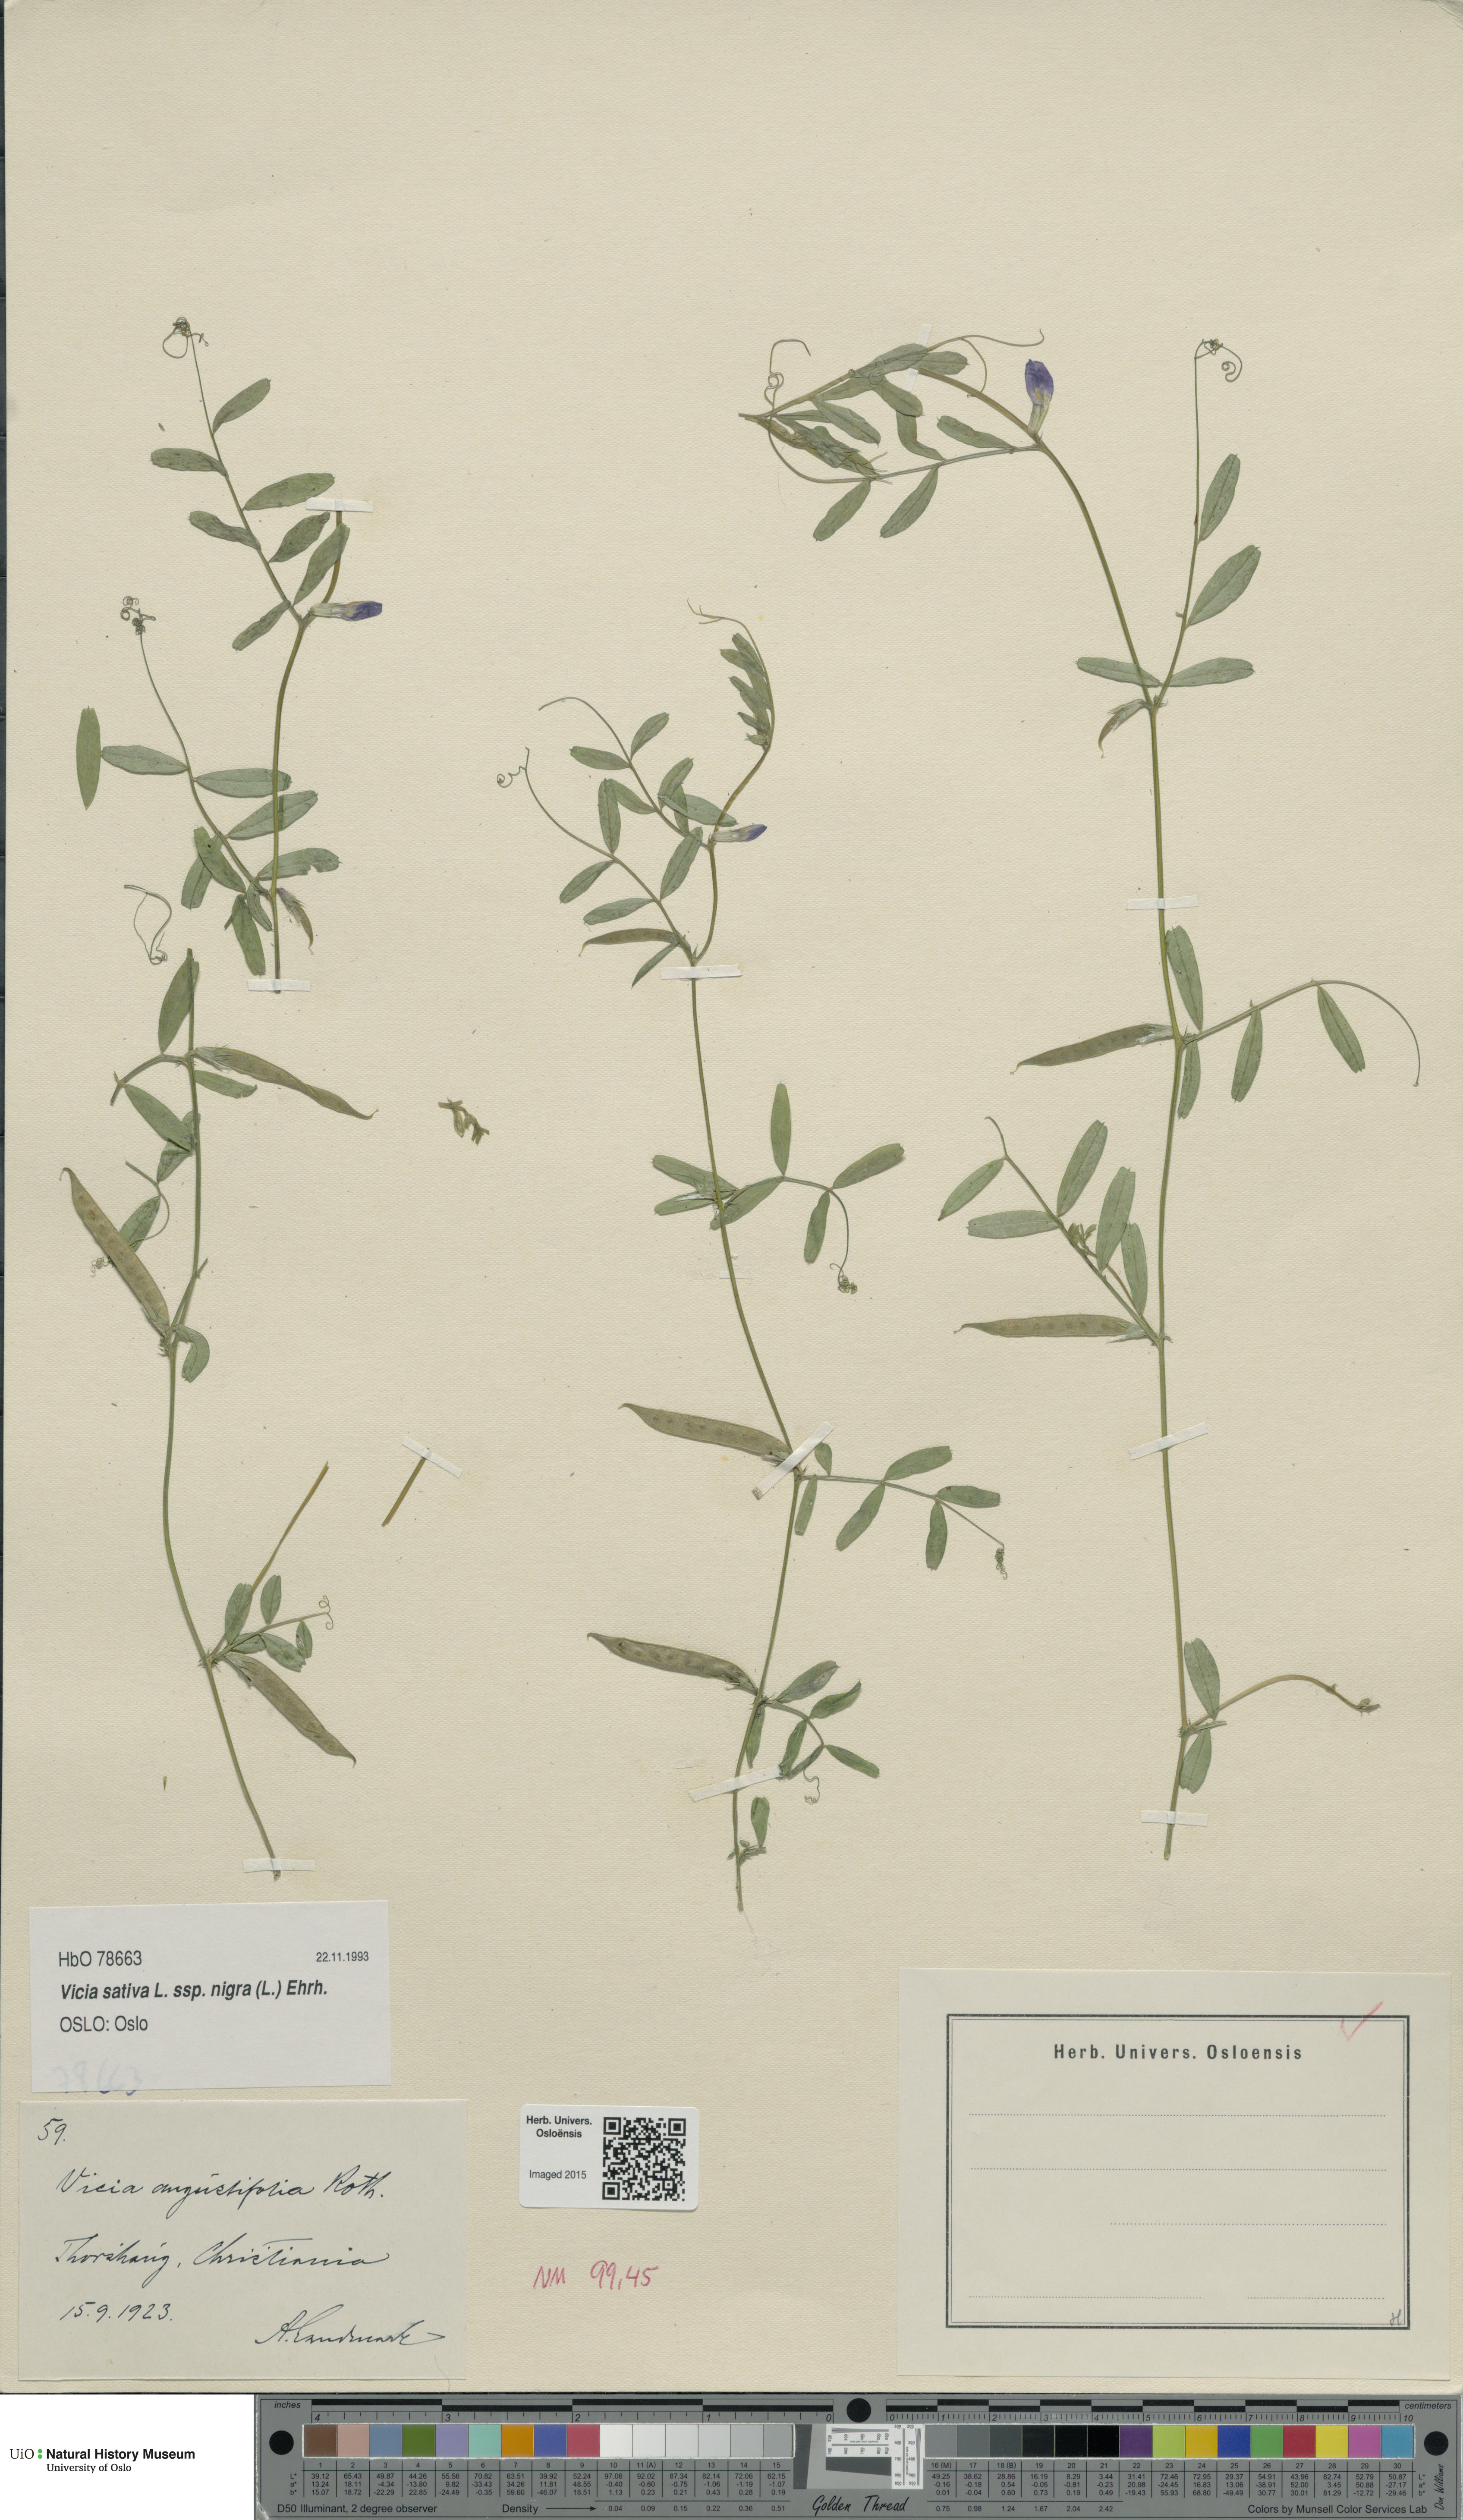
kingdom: Plantae
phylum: Tracheophyta
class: Magnoliopsida
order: Fabales
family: Fabaceae
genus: Vicia
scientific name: Vicia sativa
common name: Garden vetch
